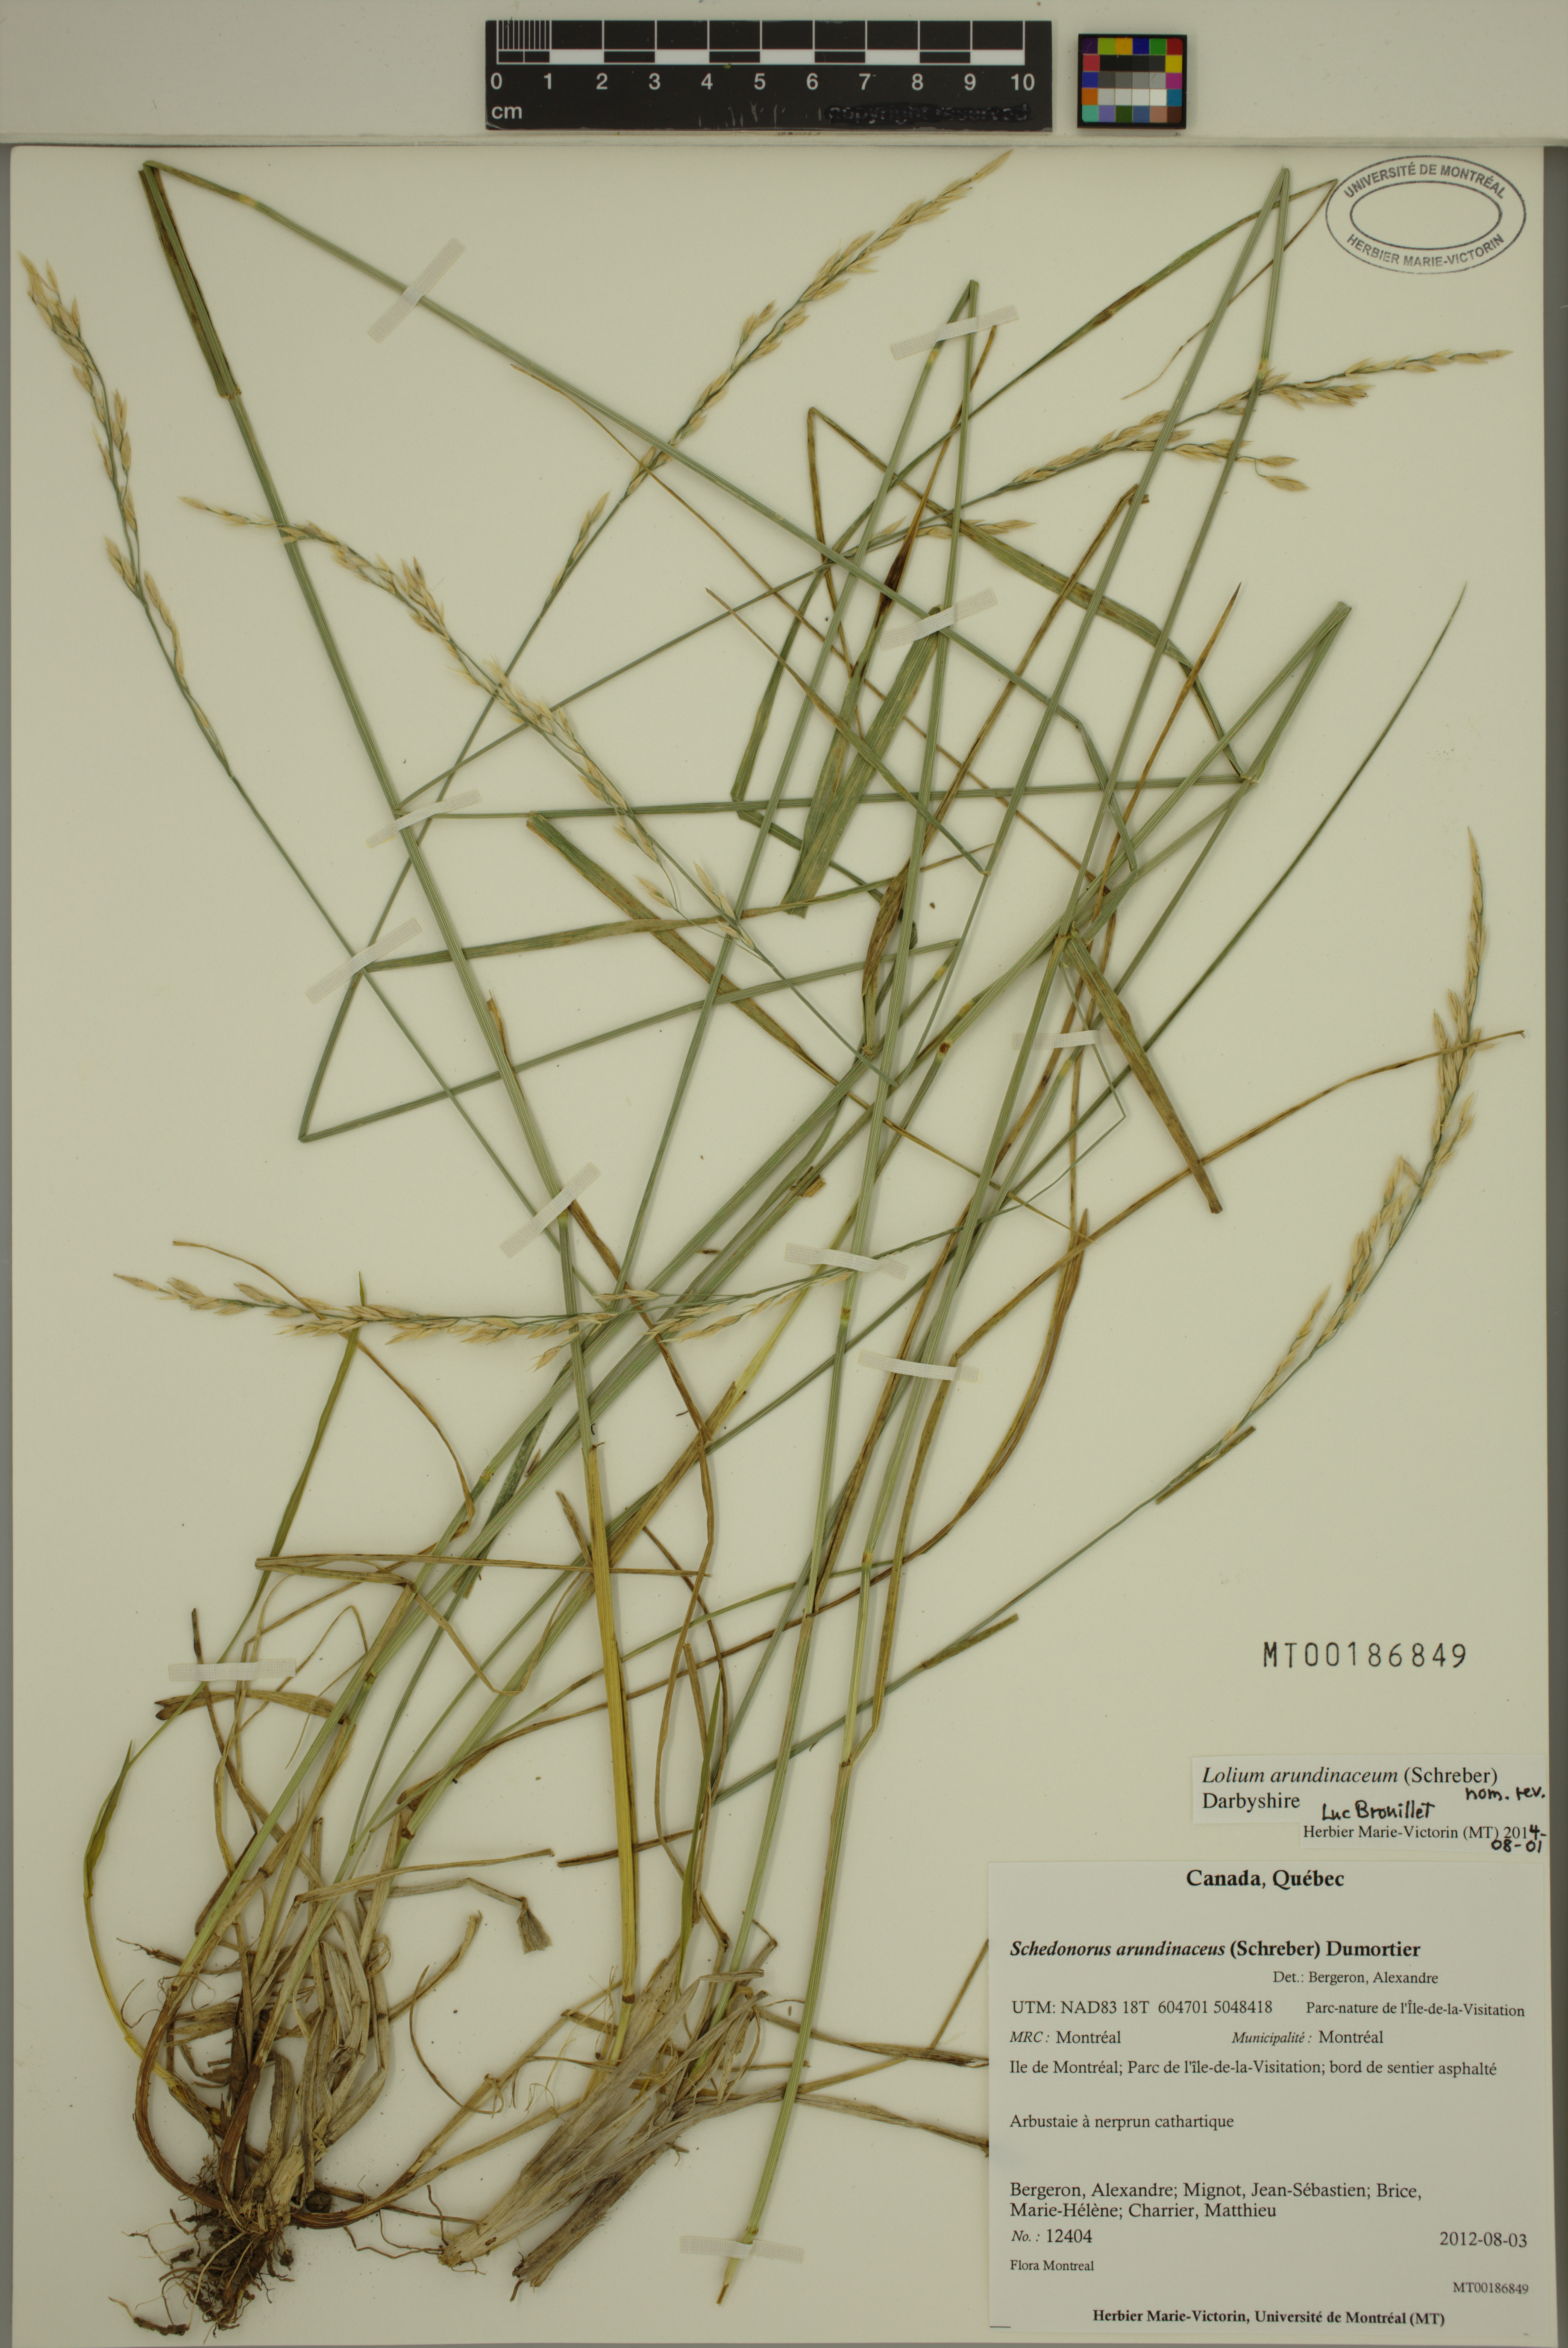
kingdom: Plantae
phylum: Tracheophyta
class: Liliopsida
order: Poales
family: Poaceae
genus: Lolium
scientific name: Lolium arundinaceum
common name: Reed fescue
